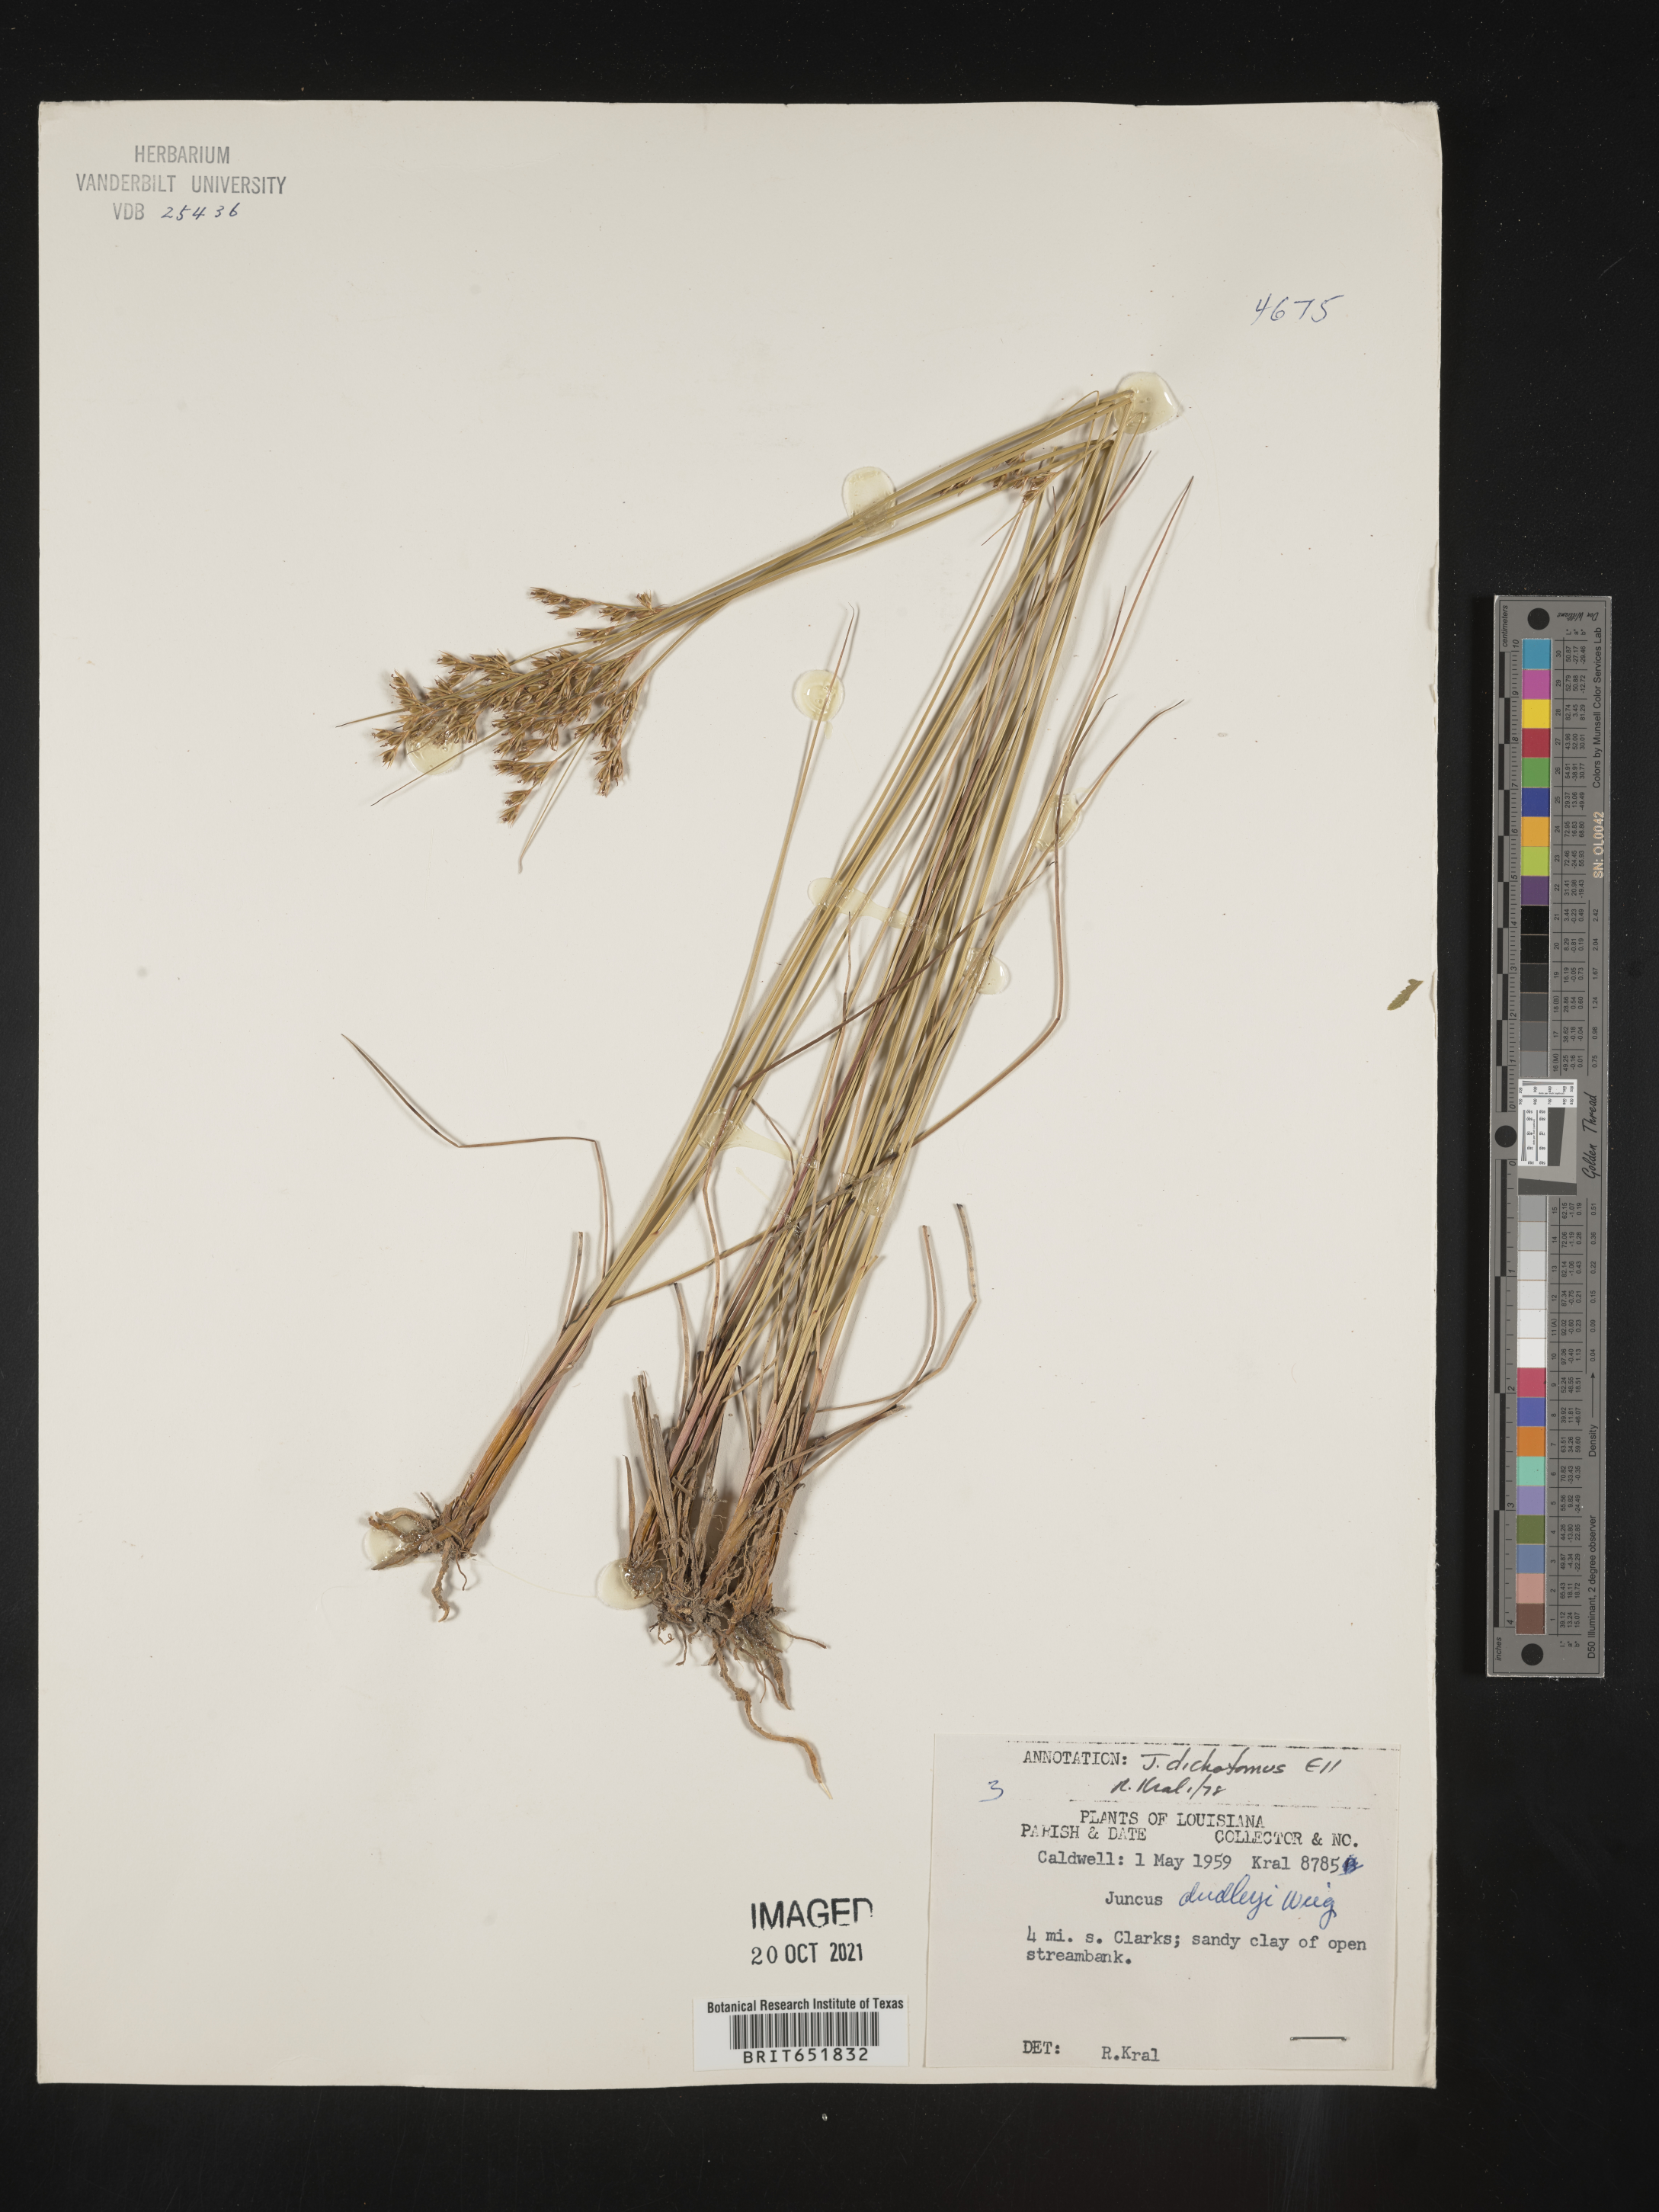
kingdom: Plantae
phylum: Tracheophyta
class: Liliopsida
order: Poales
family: Juncaceae
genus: Juncus
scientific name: Juncus dichotomus
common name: Forked rush
